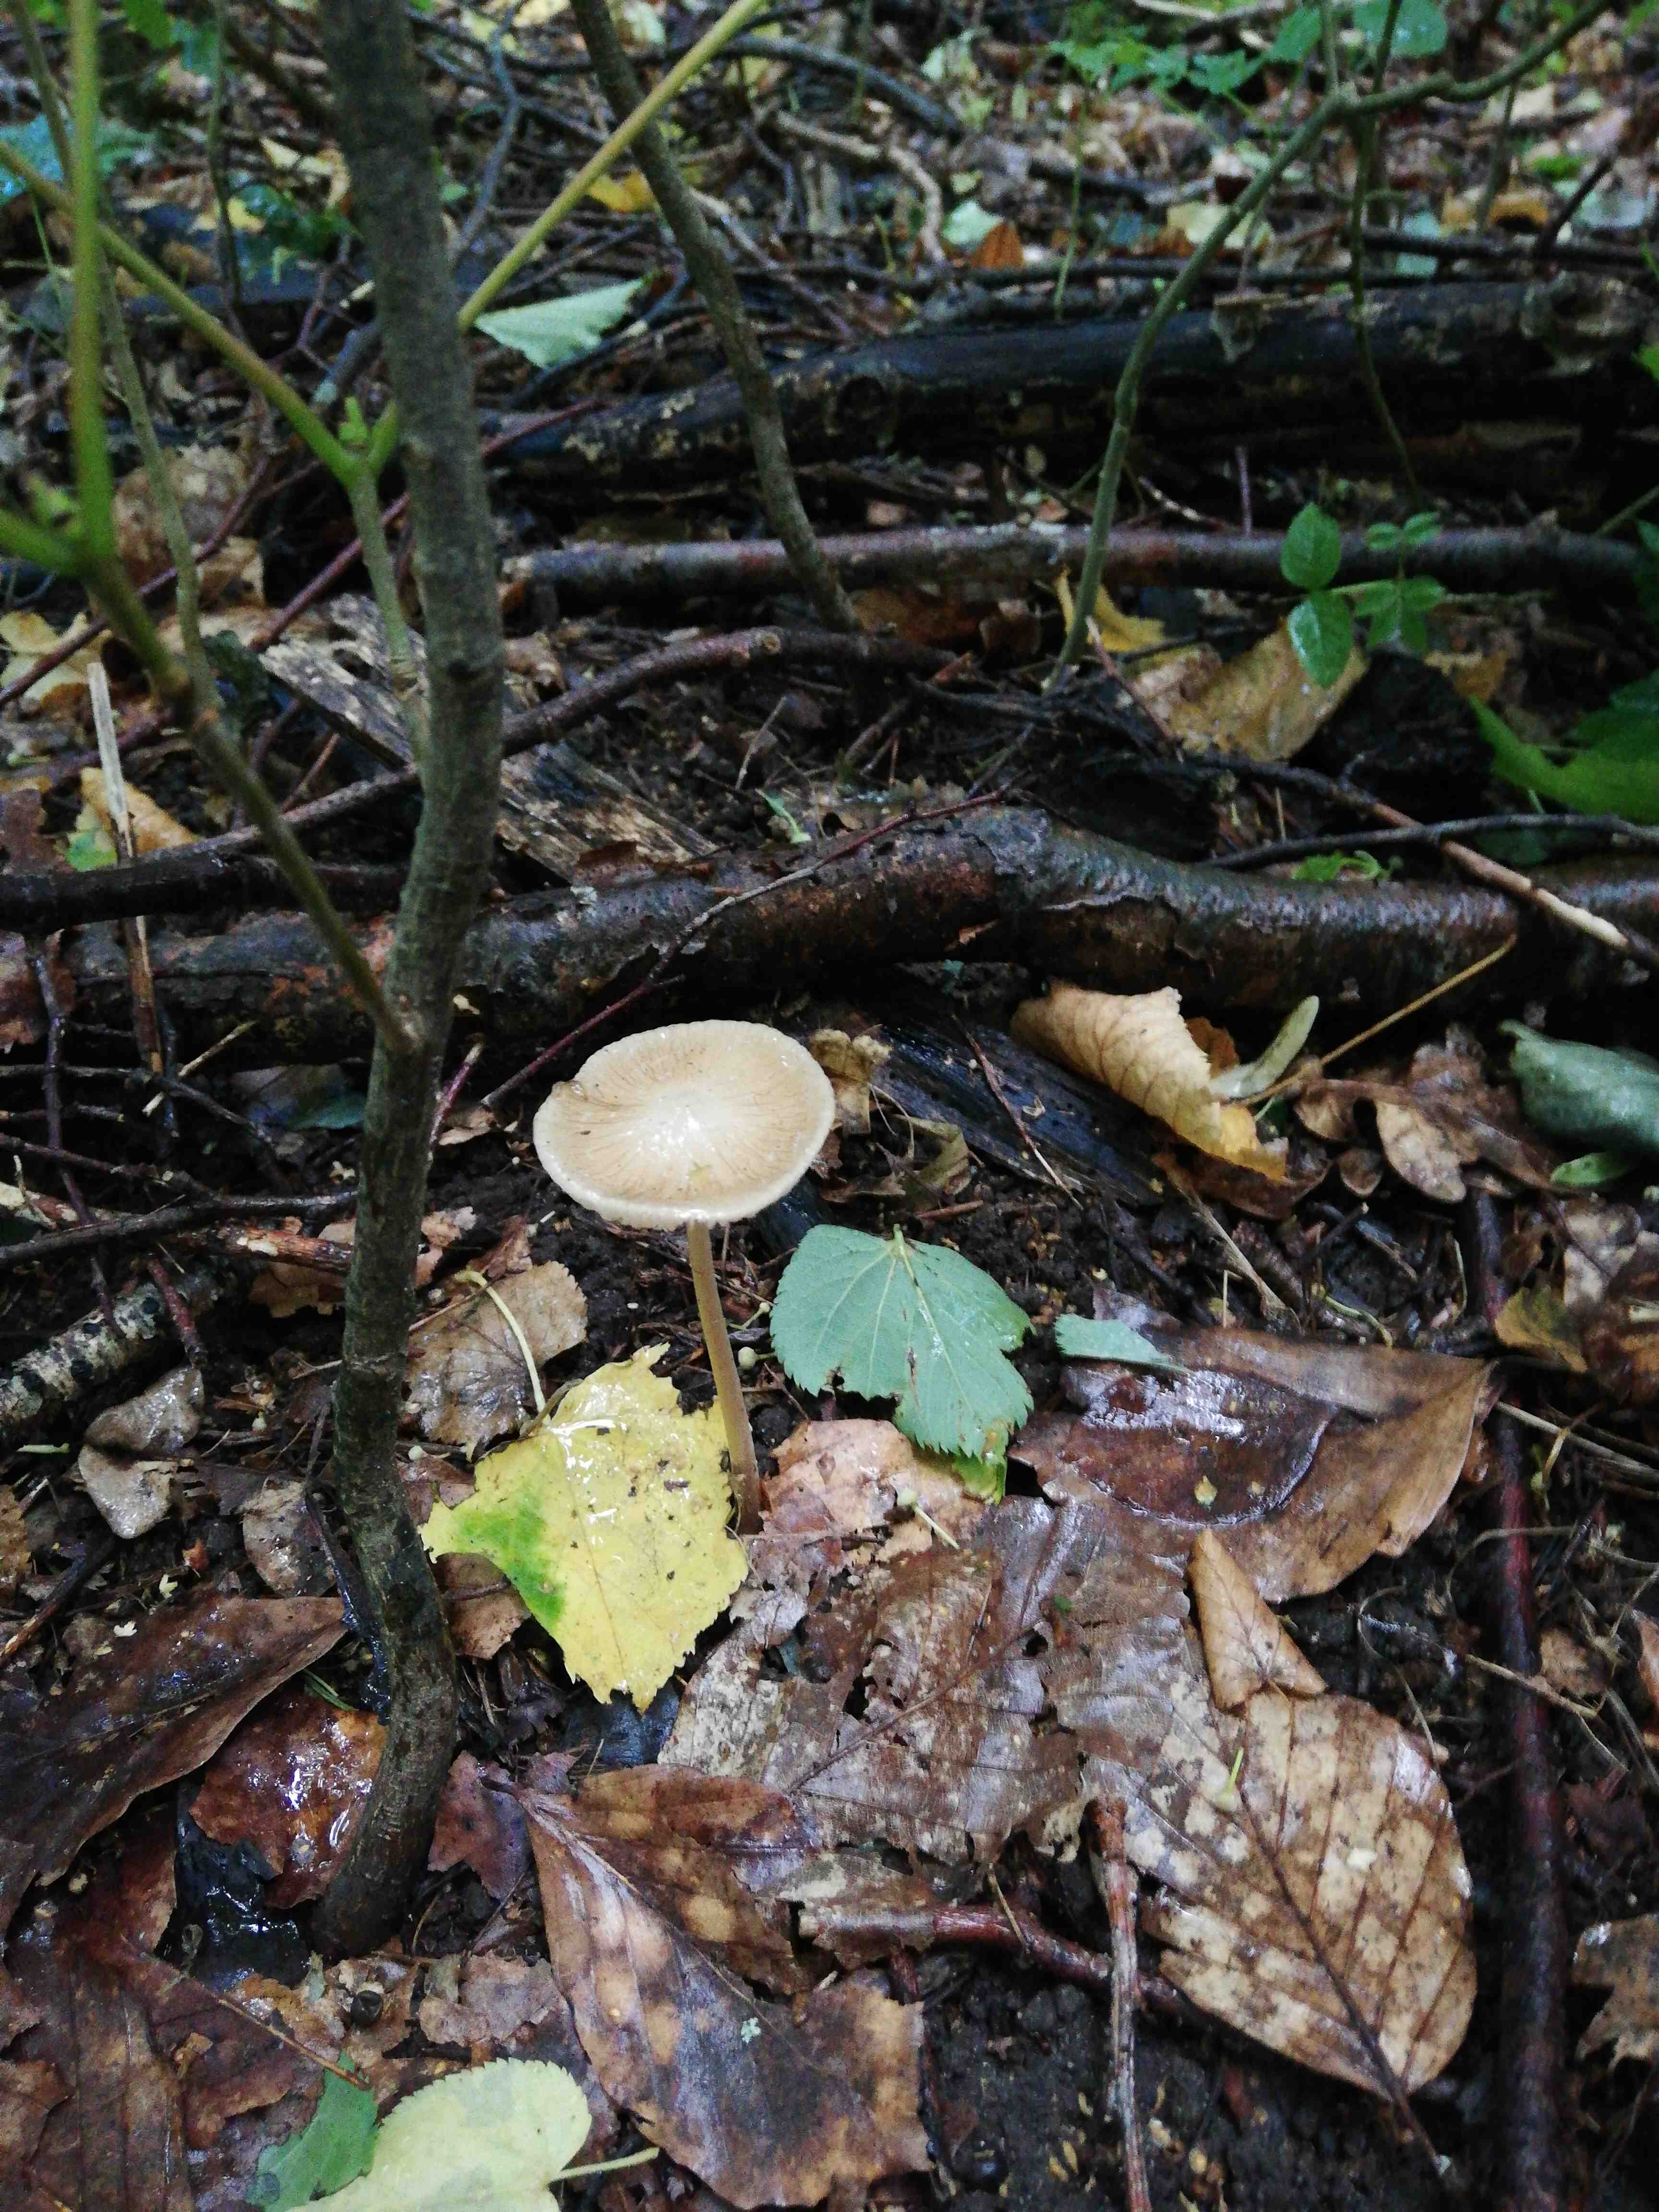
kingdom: Fungi
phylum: Basidiomycota
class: Agaricomycetes
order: Agaricales
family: Physalacriaceae
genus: Hymenopellis
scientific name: Hymenopellis radicata
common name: almindelig pælerodshat
